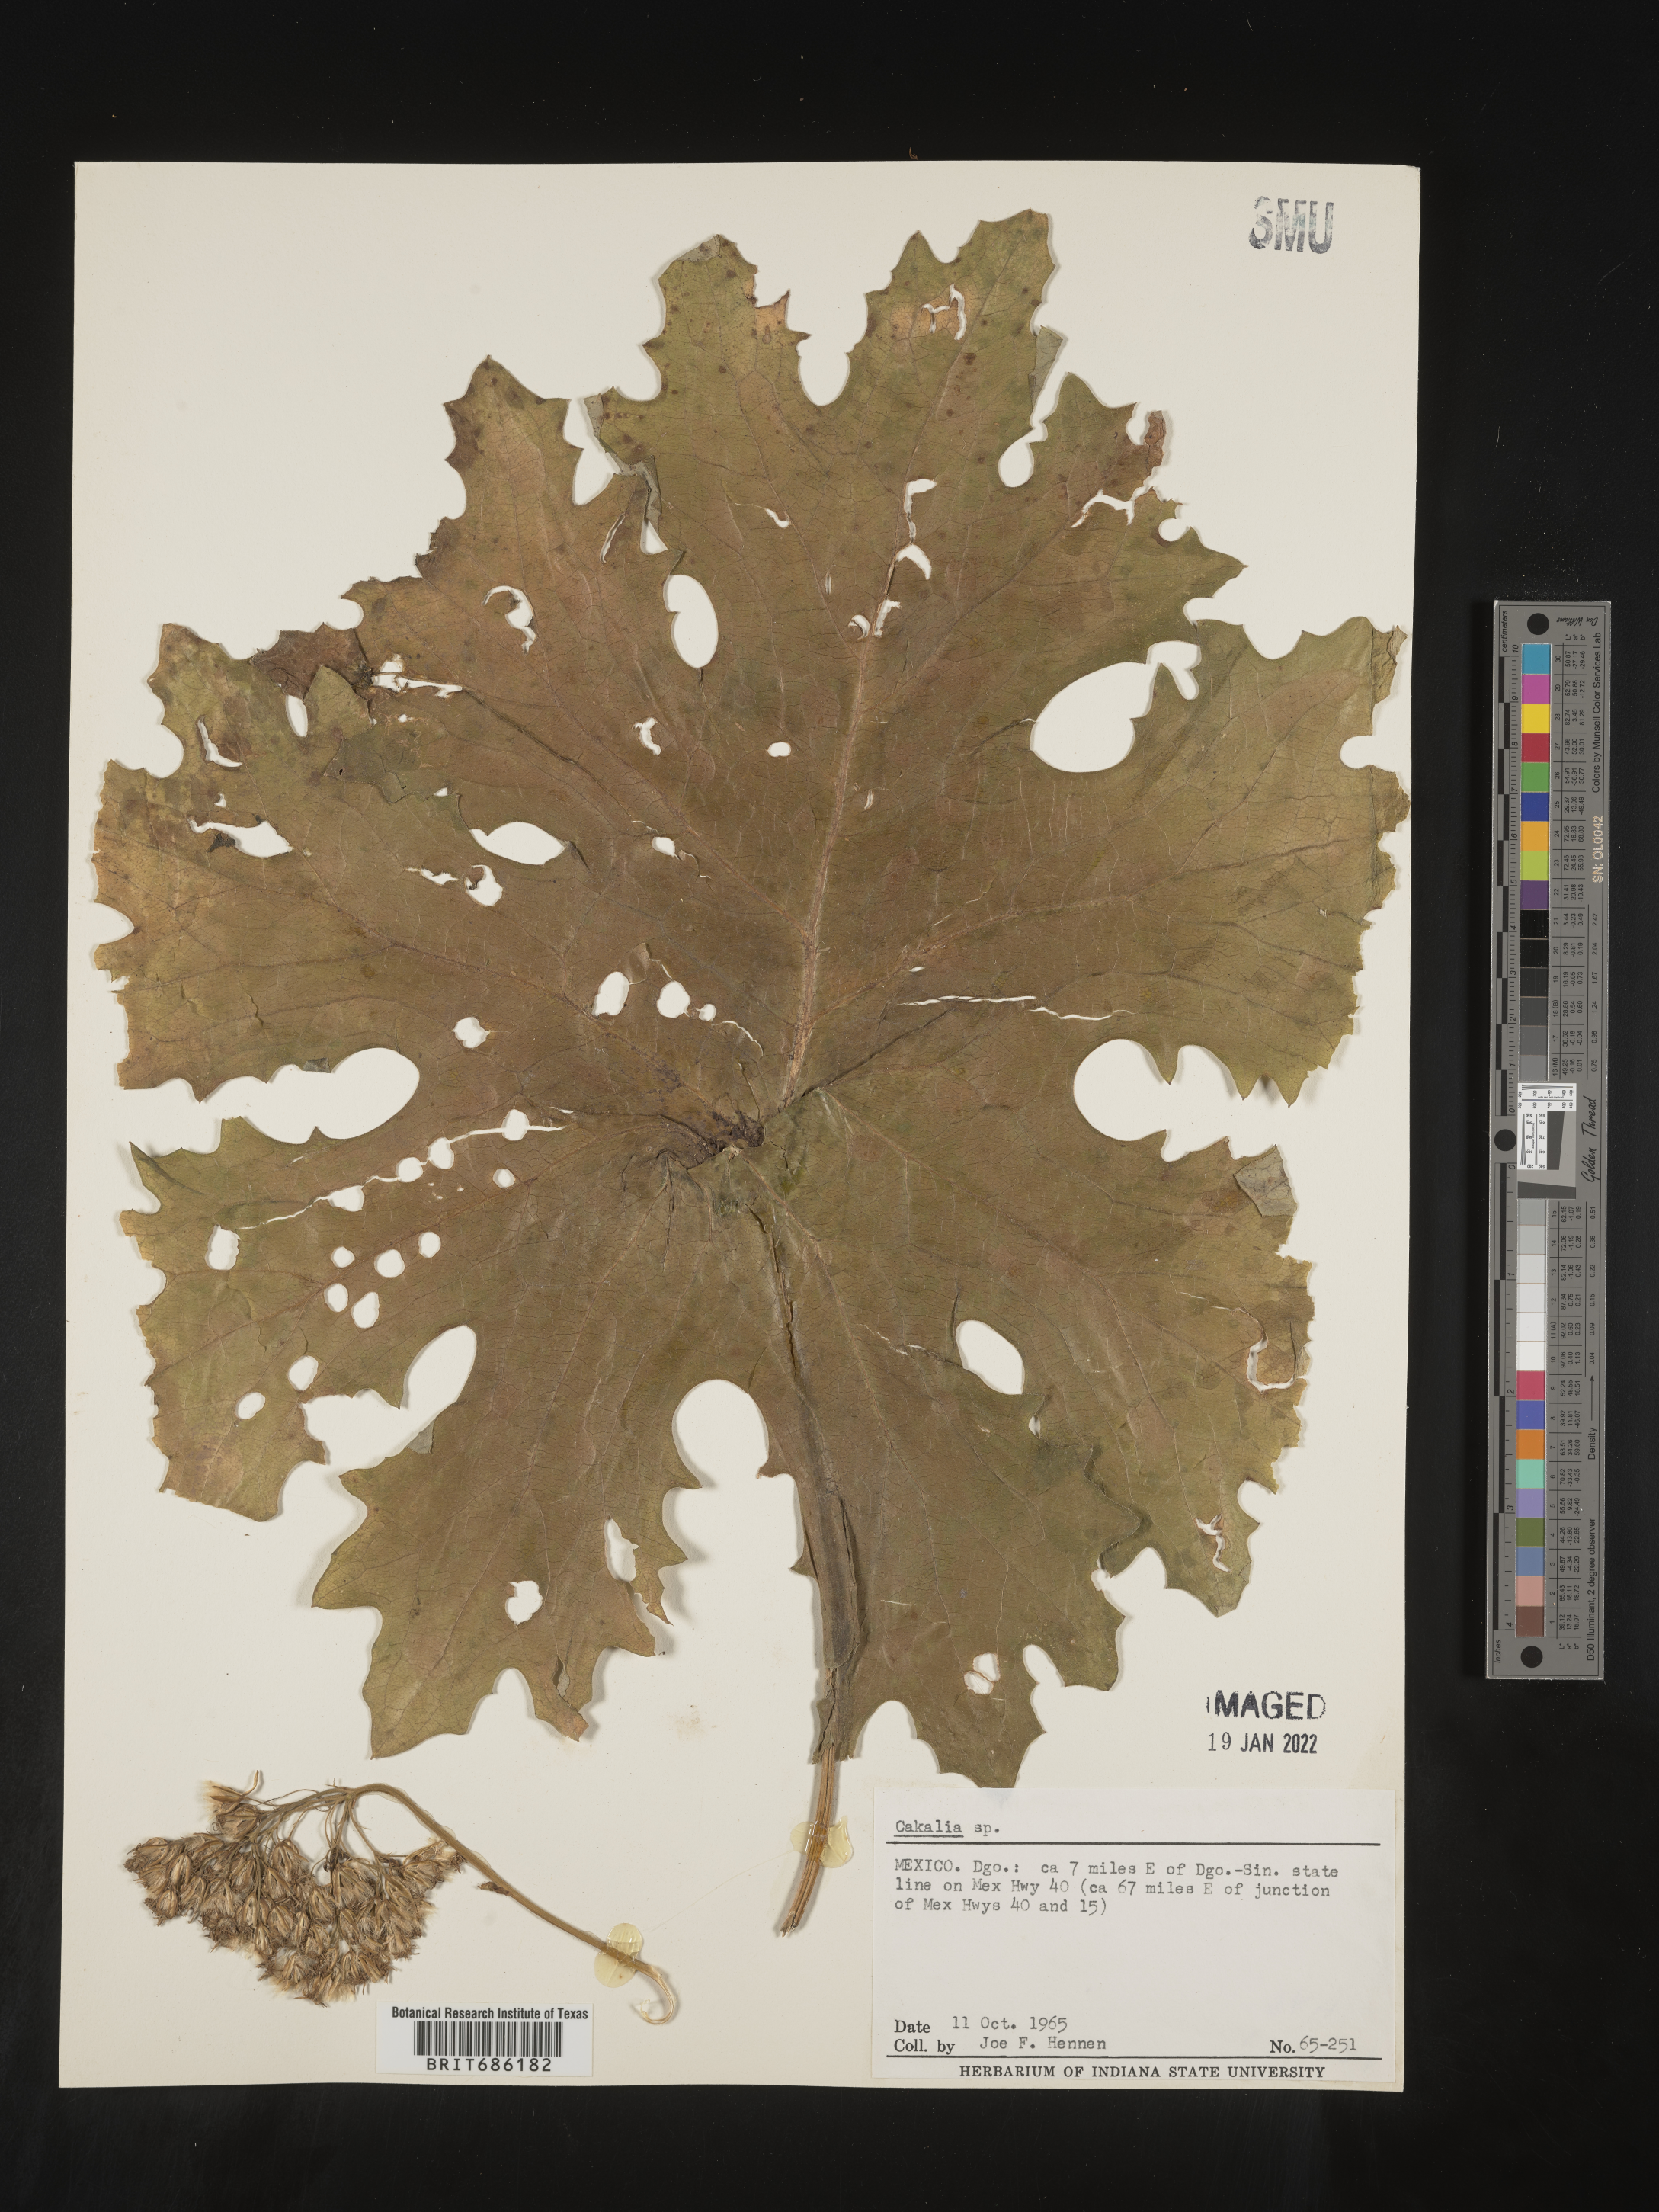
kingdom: Plantae
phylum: Tracheophyta
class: Magnoliopsida
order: Asterales
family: Asteraceae
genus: Cacalia
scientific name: Cacalia
